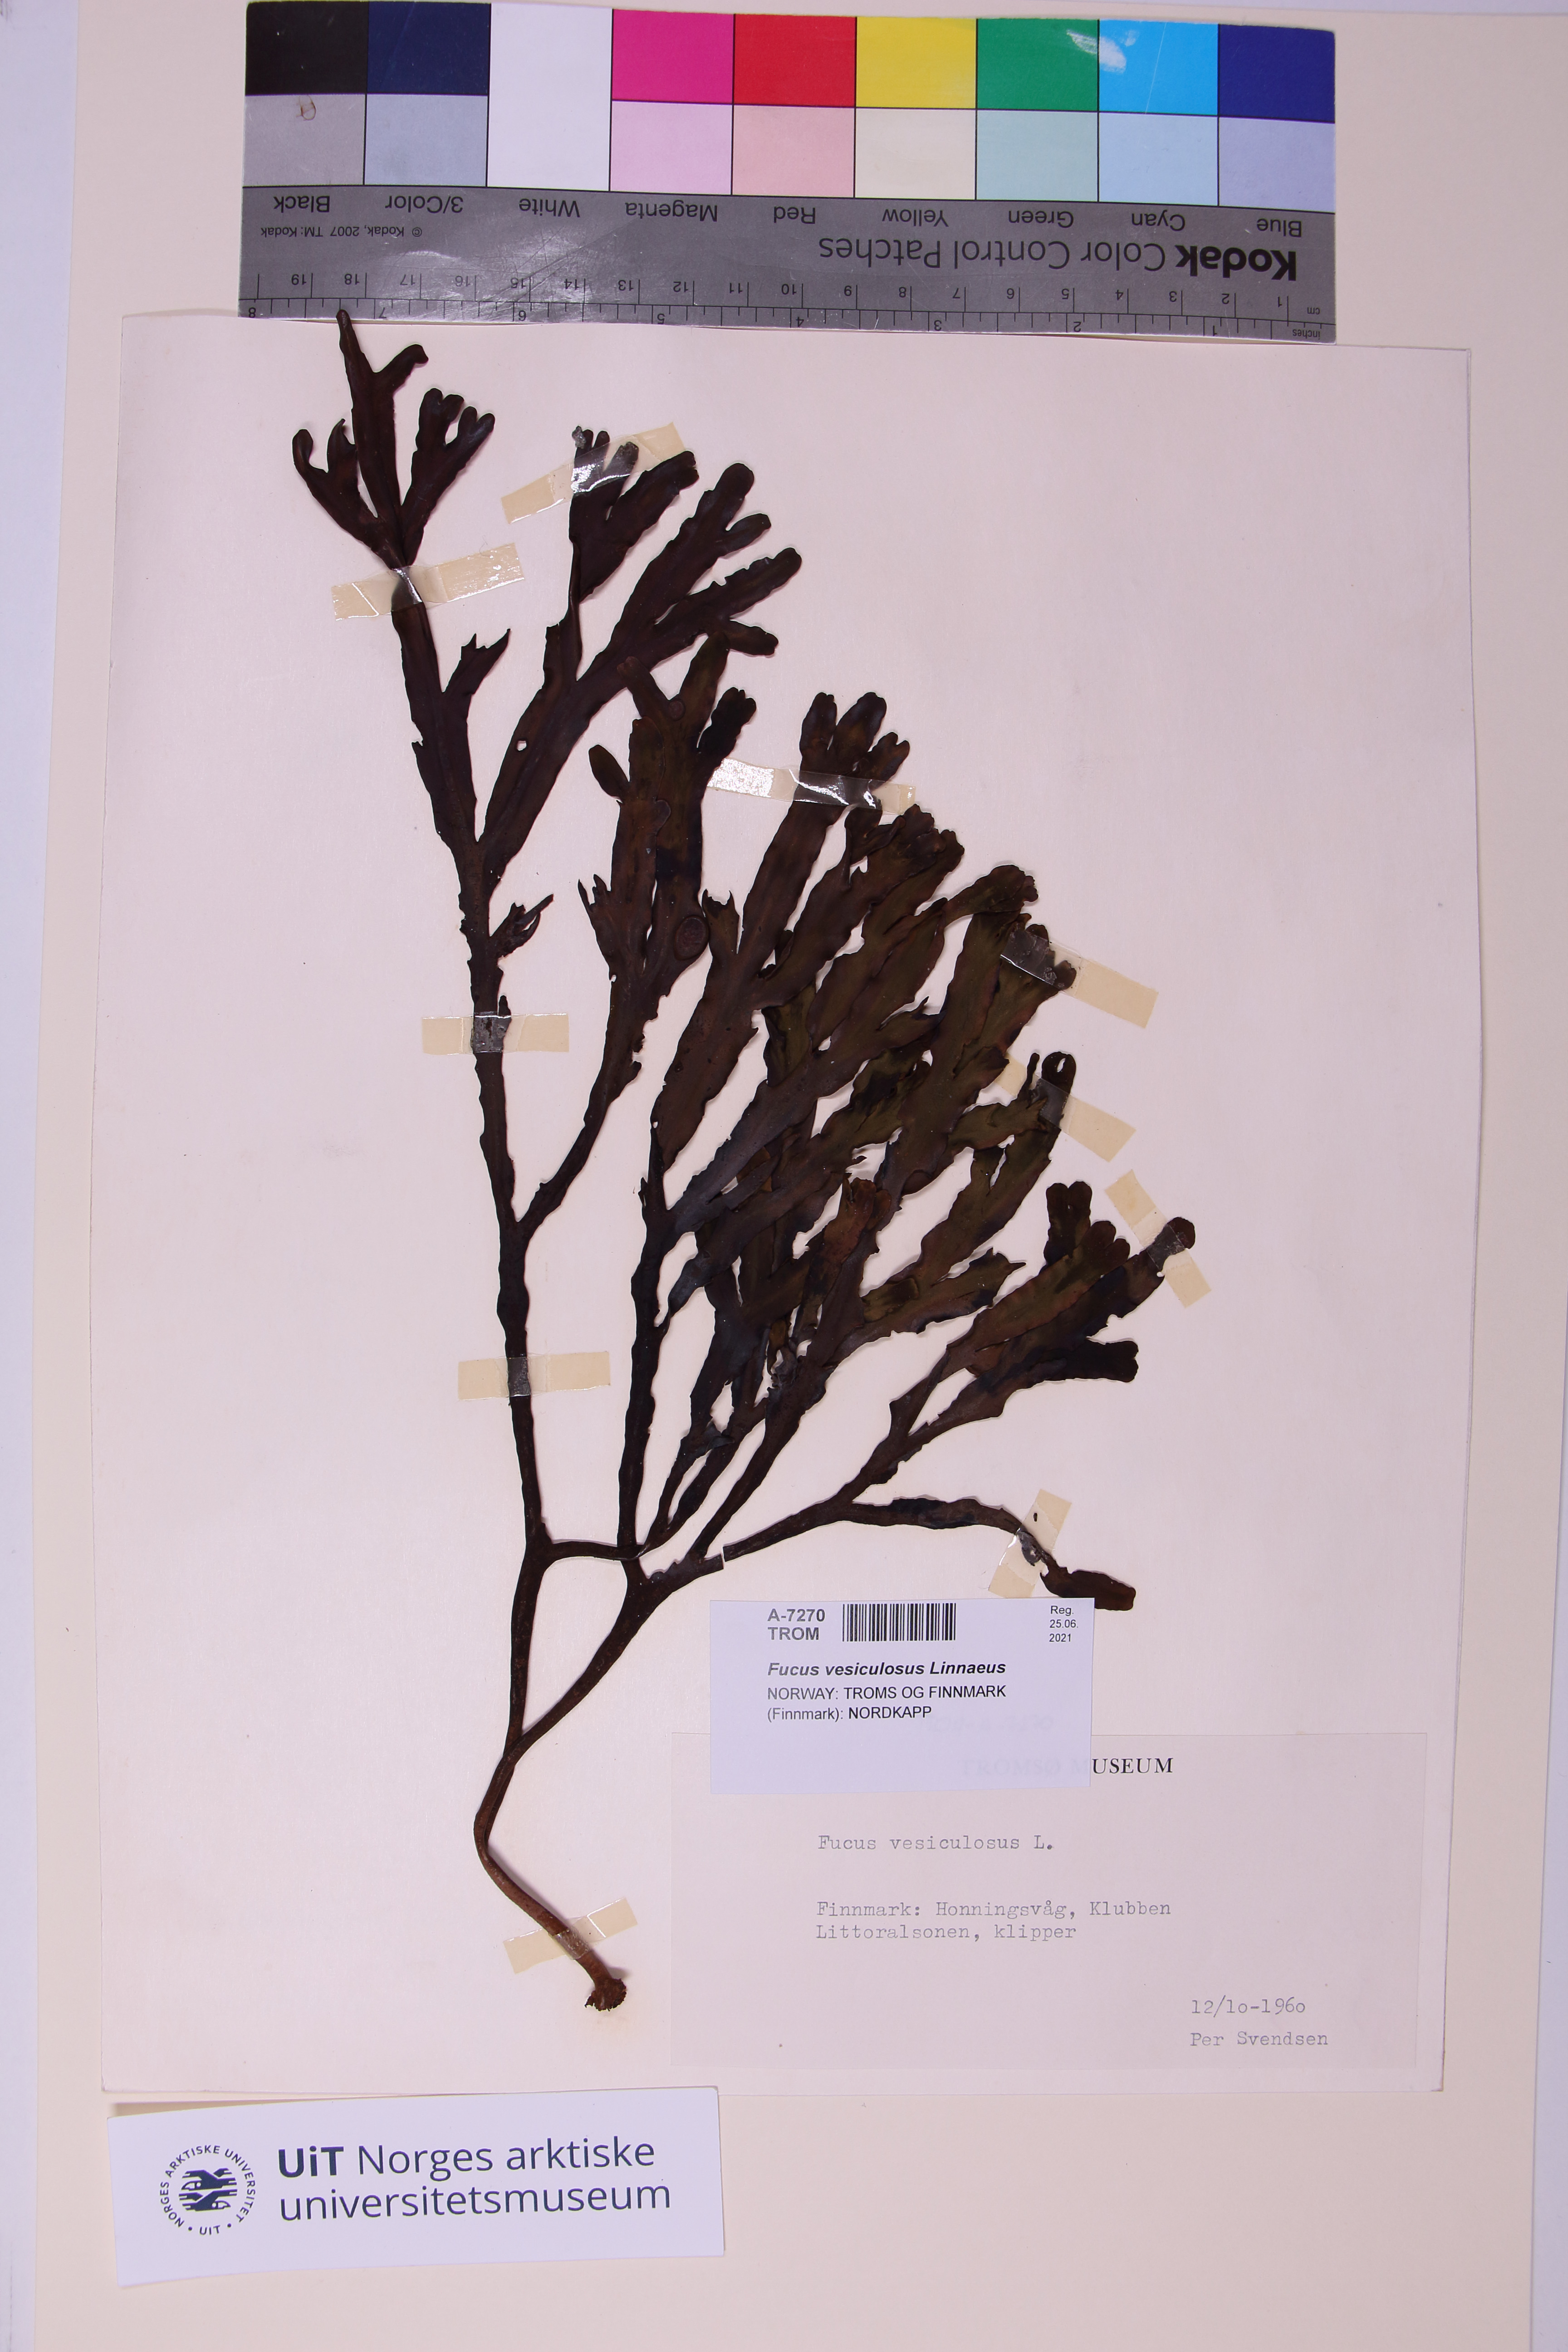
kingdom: Chromista
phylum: Ochrophyta
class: Phaeophyceae
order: Fucales
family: Fucaceae
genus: Fucus
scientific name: Fucus vesiculosus
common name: Bladder wrack
